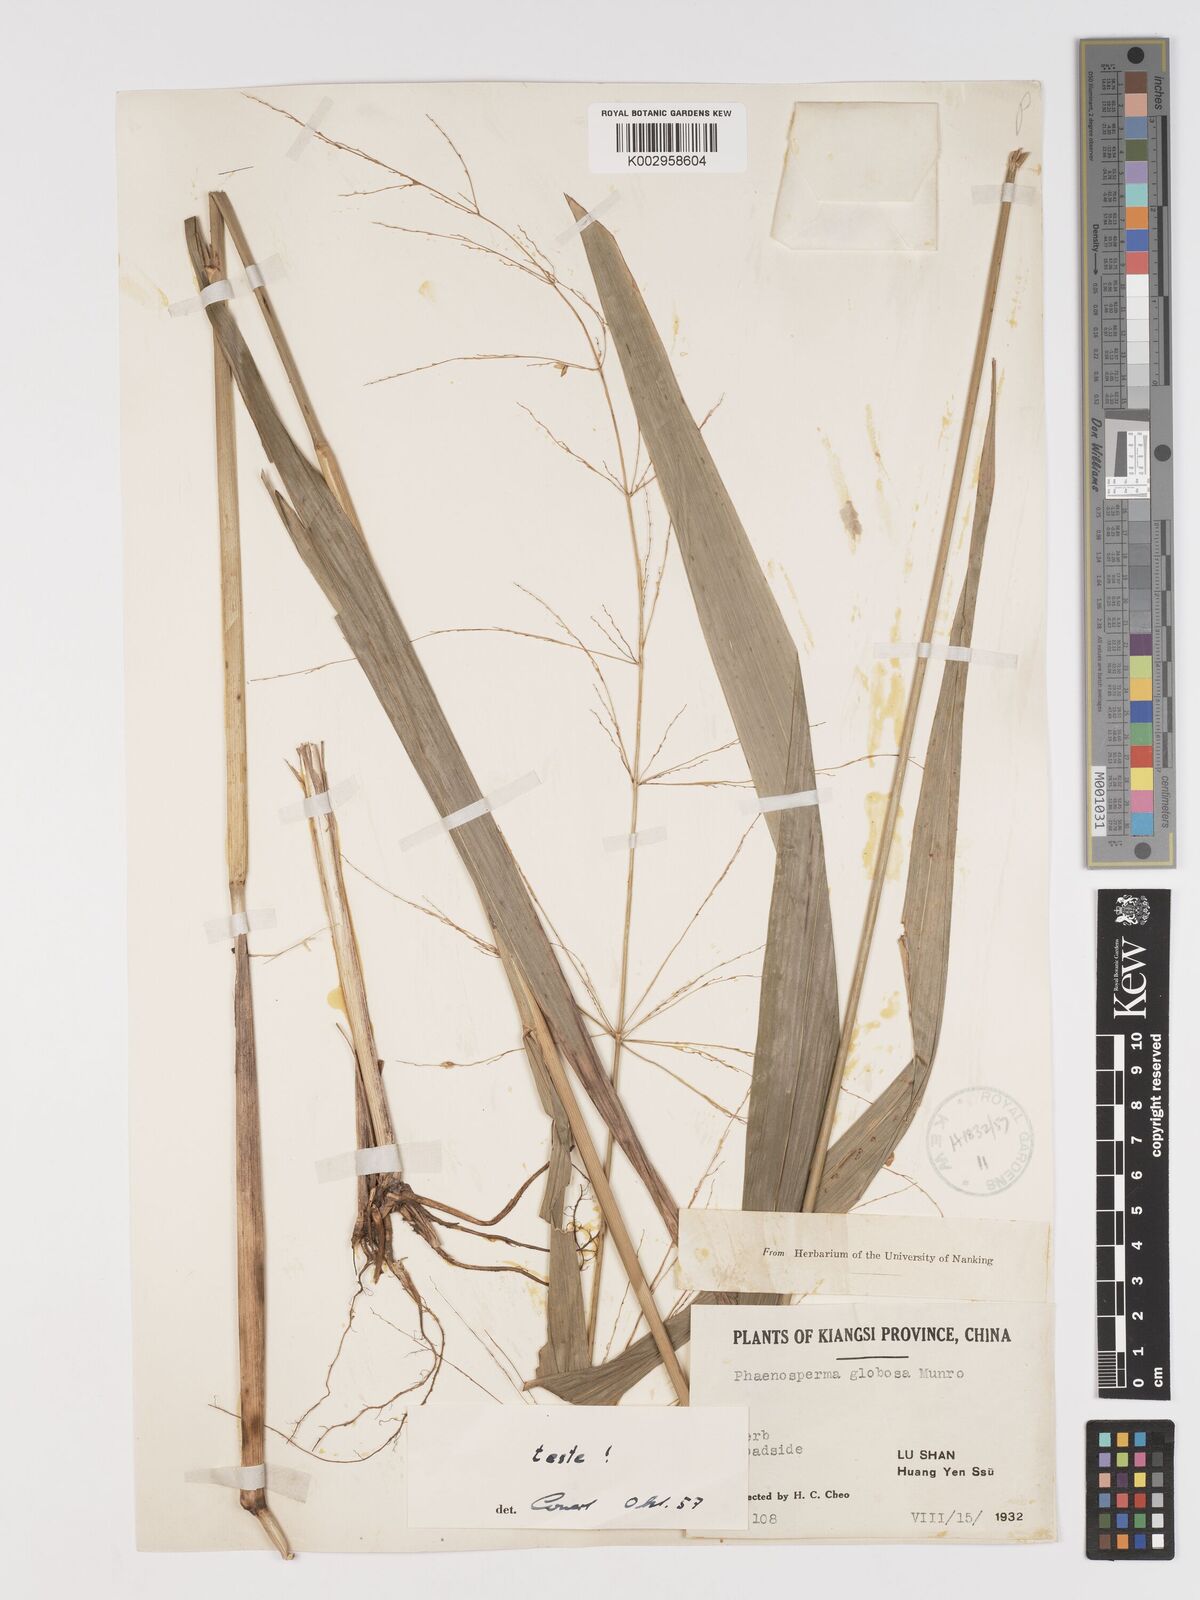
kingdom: Plantae
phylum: Tracheophyta
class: Liliopsida
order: Poales
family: Poaceae
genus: Phaenosperma
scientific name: Phaenosperma globosum
